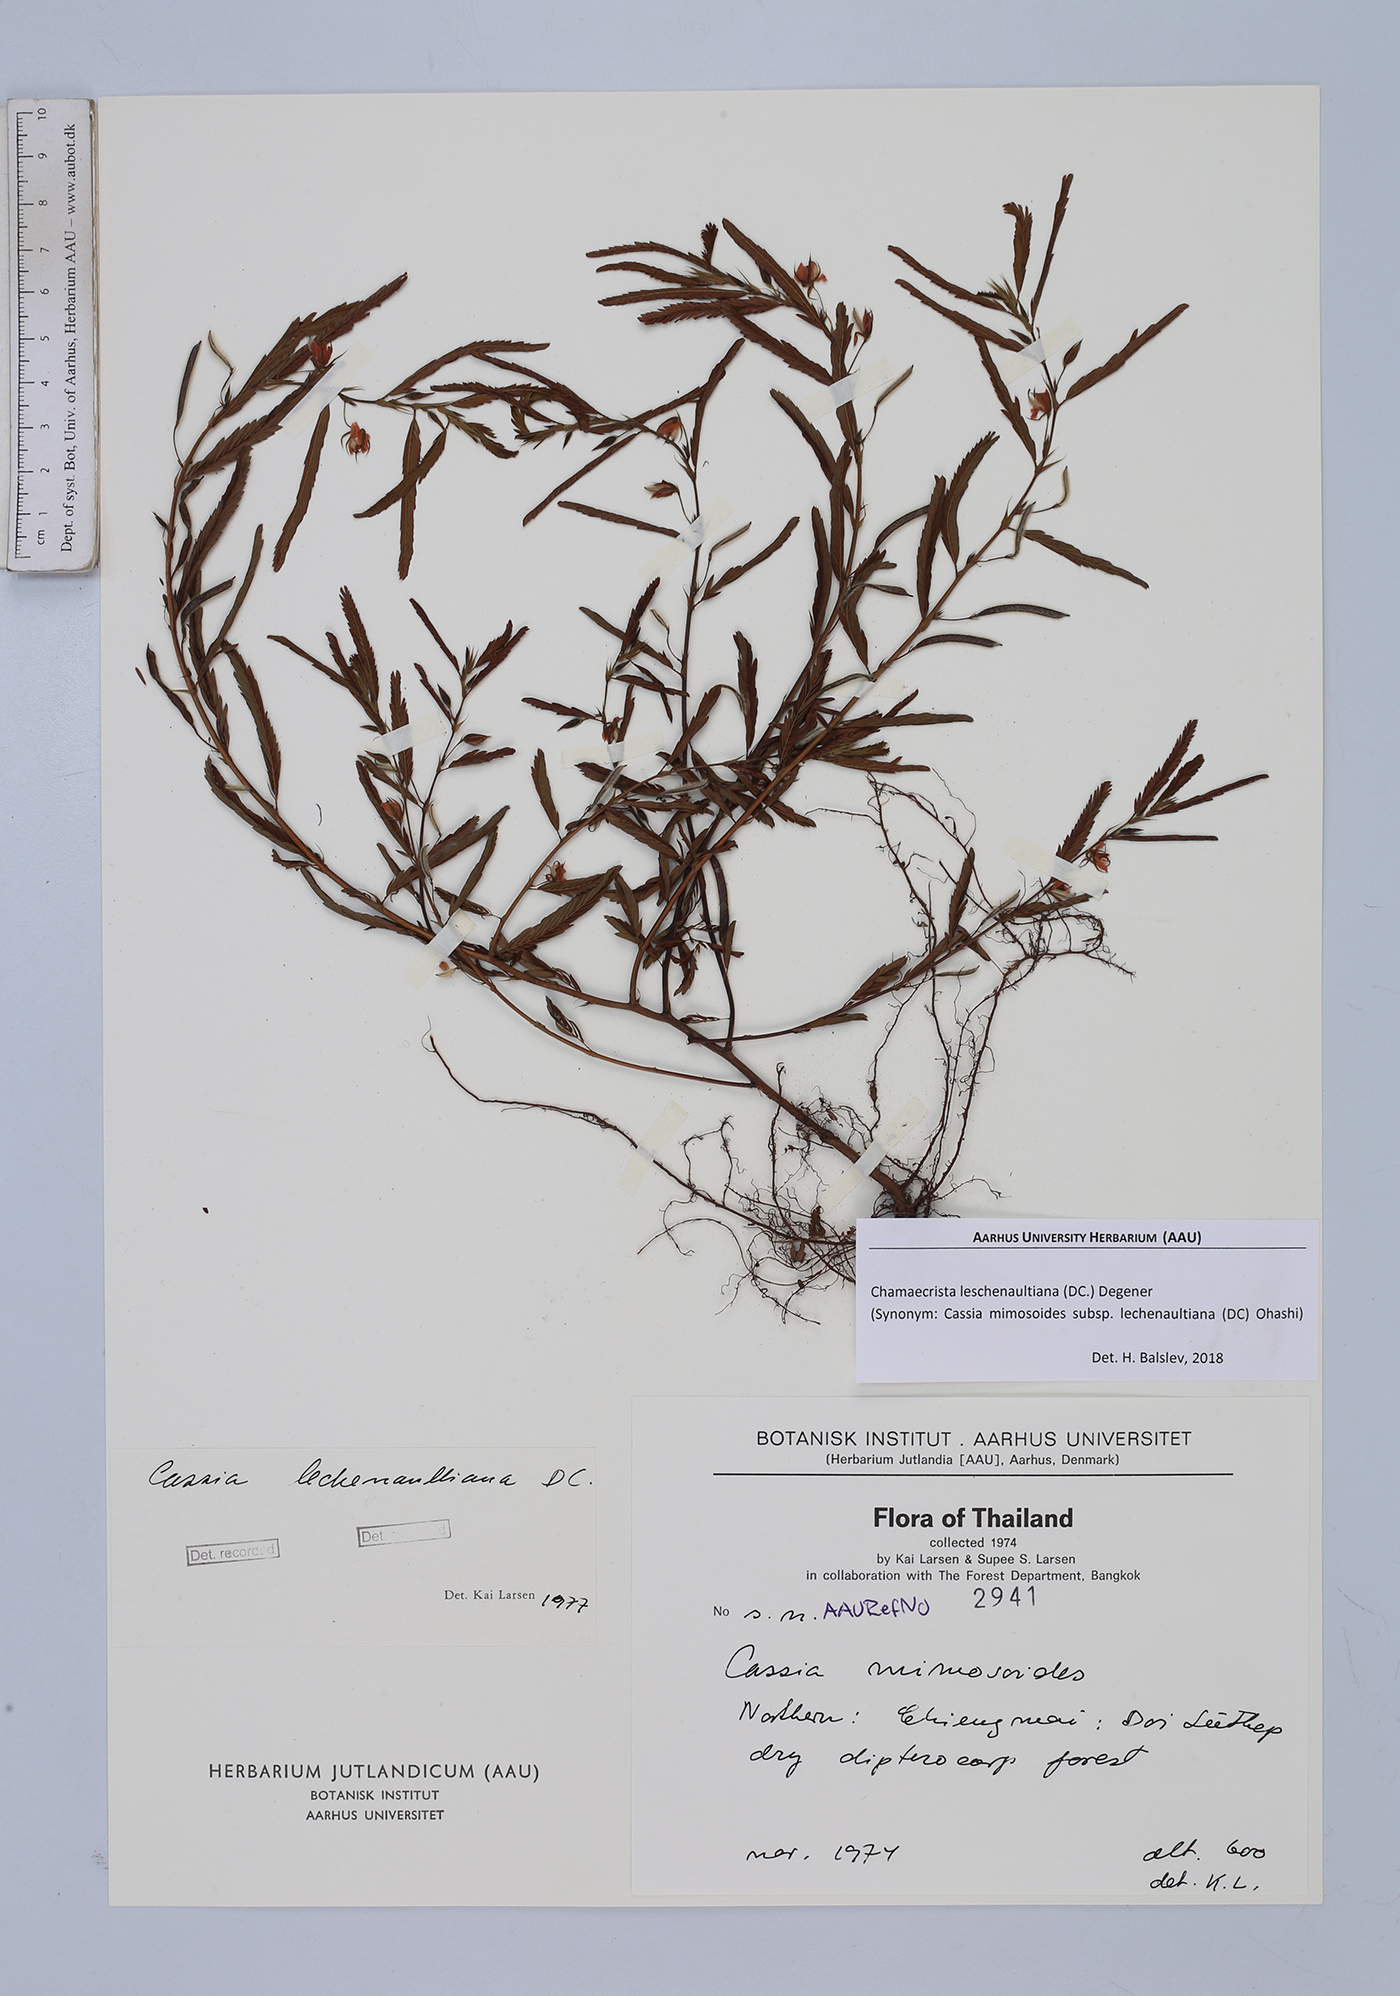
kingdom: Plantae
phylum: Tracheophyta
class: Magnoliopsida
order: Fabales
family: Fabaceae
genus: Chamaecrista
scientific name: Chamaecrista nictitans
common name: Sensitive cassia
